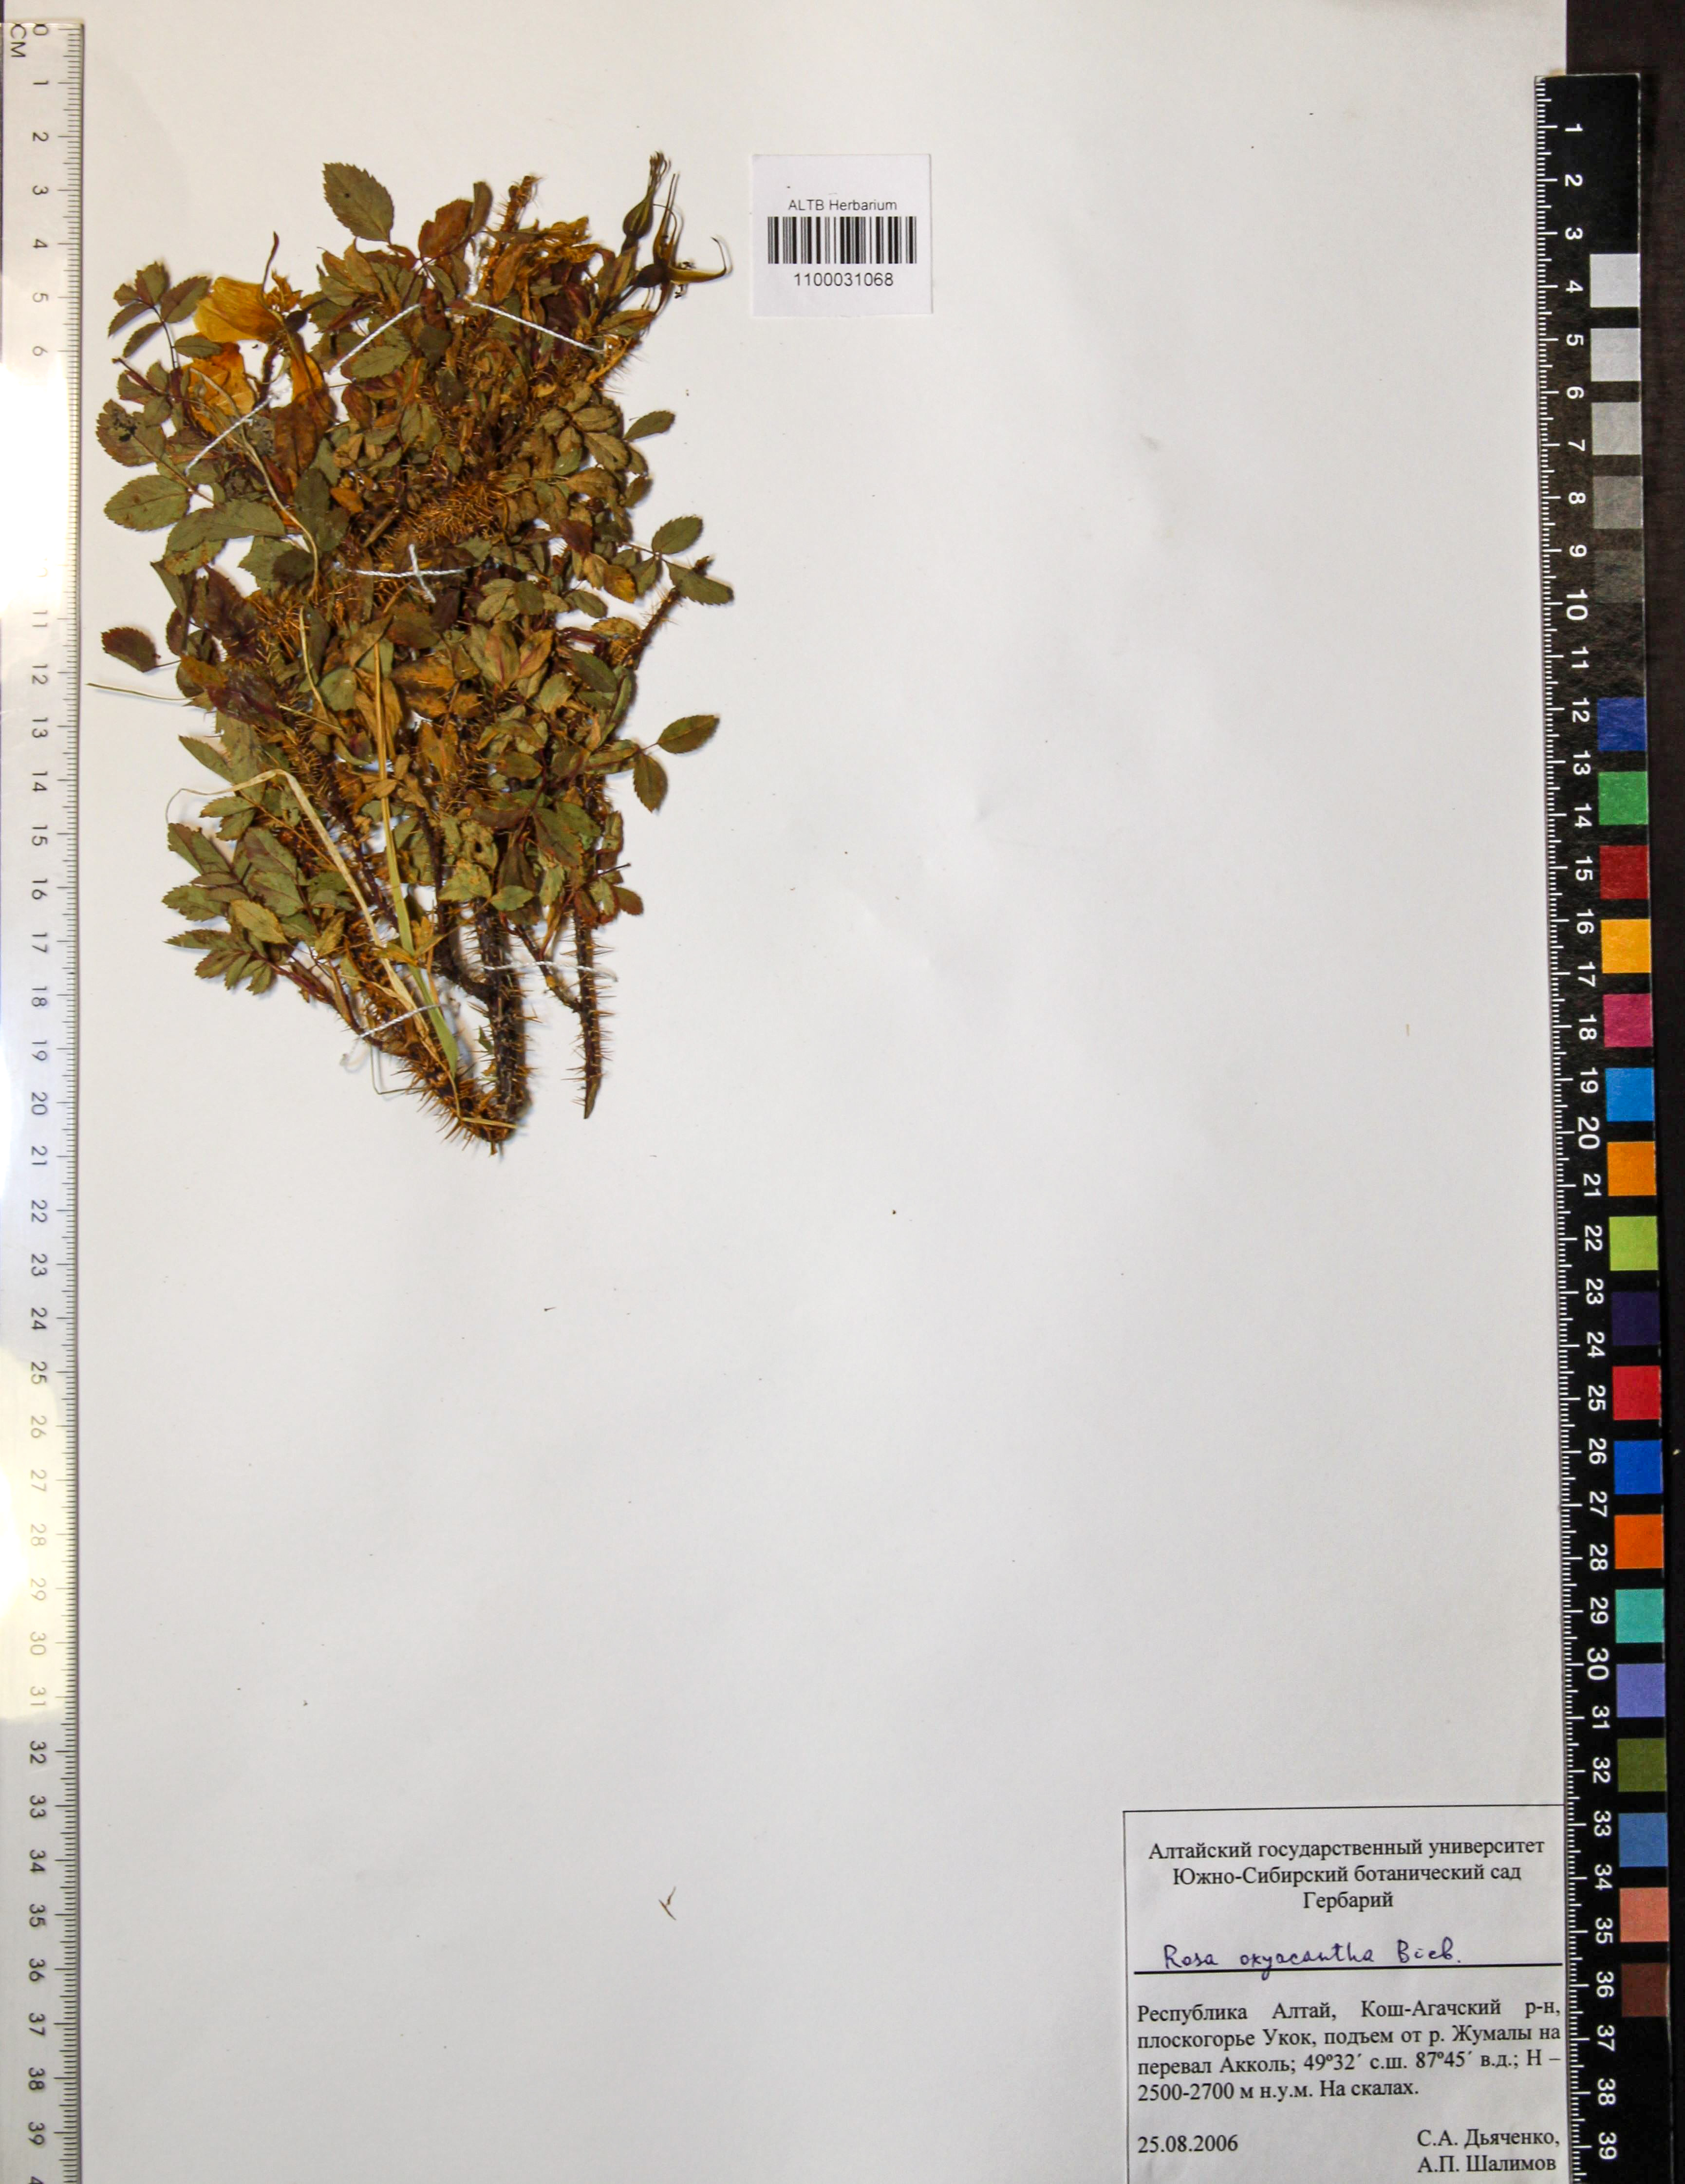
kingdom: Plantae
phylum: Tracheophyta
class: Magnoliopsida
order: Rosales
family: Rosaceae
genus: Rosa
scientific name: Rosa oxyacantha
